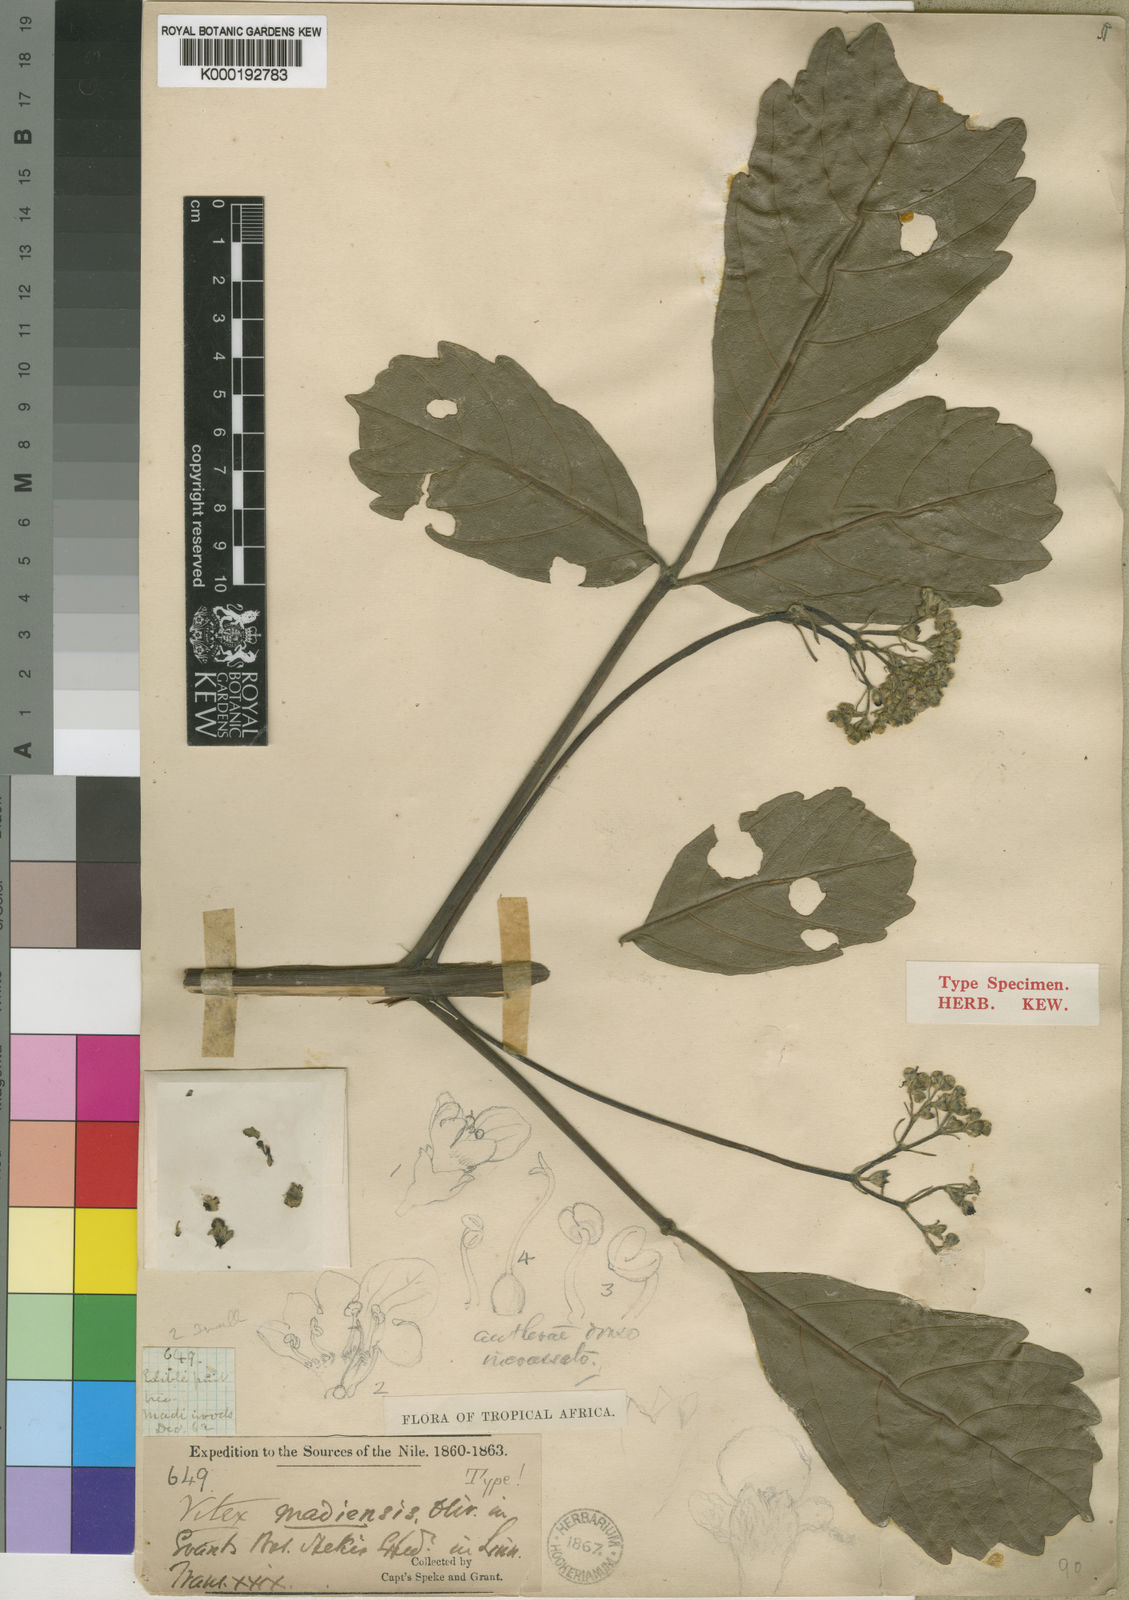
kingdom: Plantae
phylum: Tracheophyta
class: Magnoliopsida
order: Lamiales
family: Lamiaceae
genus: Vitex
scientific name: Vitex madiensis
